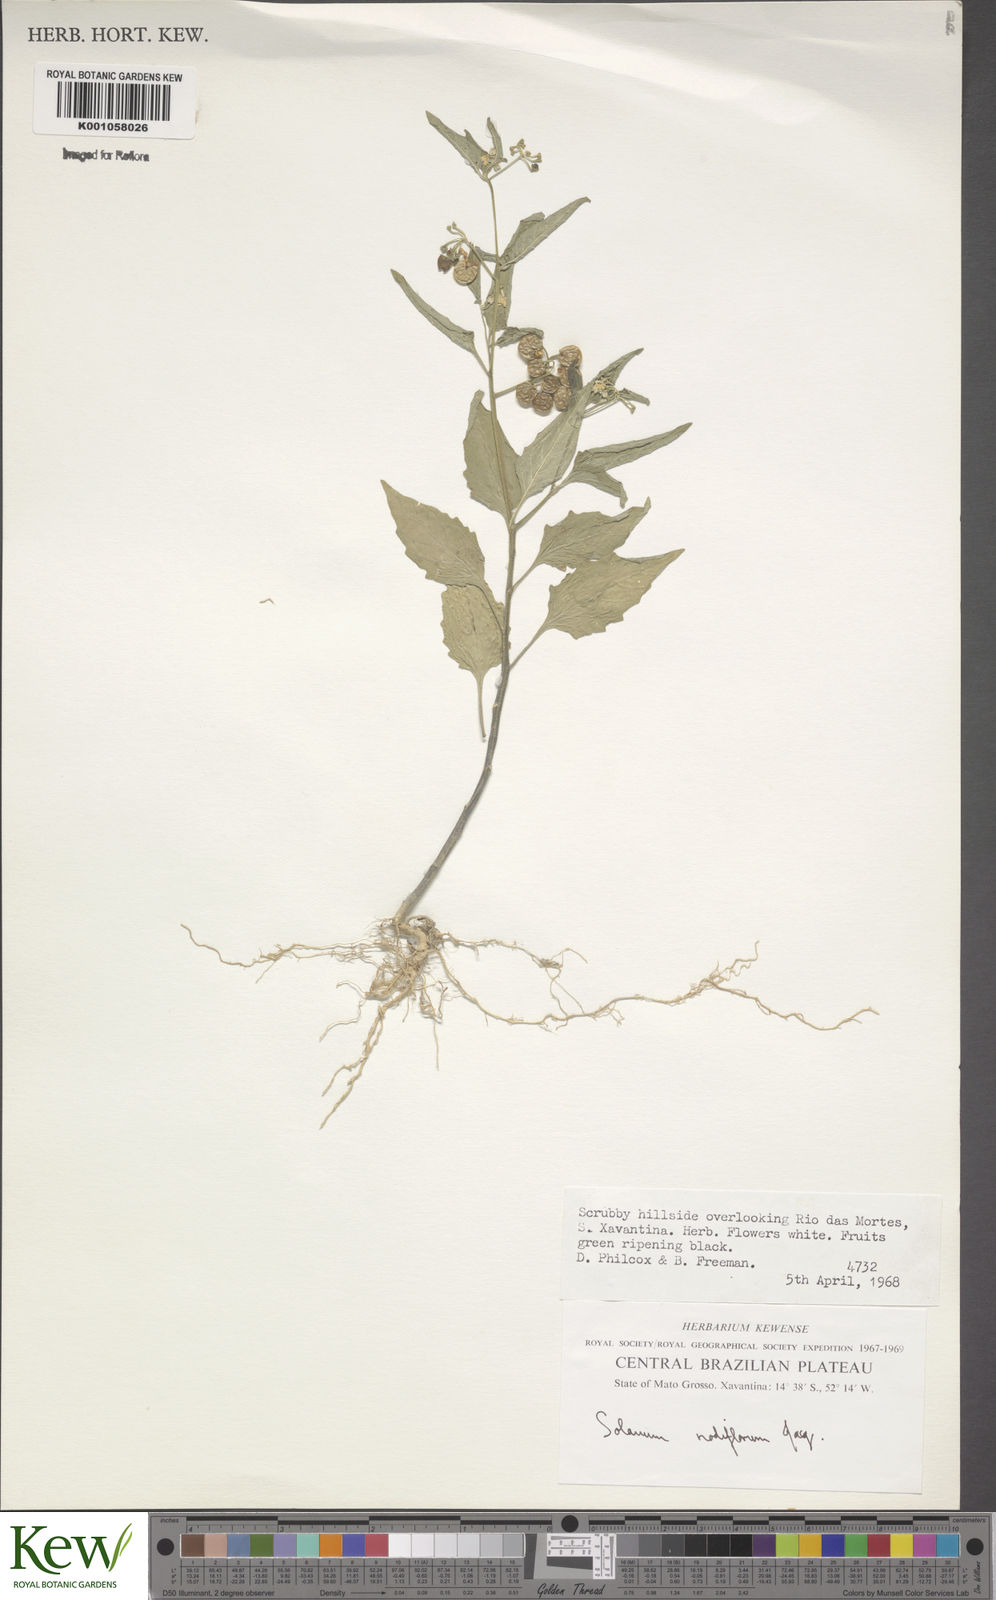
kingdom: Plantae
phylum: Tracheophyta
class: Magnoliopsida
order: Solanales
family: Solanaceae
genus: Solanum
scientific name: Solanum americanum
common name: American black nightshade
